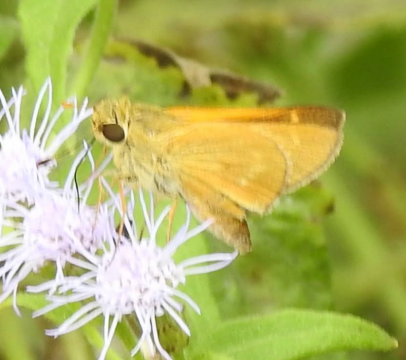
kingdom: Animalia
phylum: Arthropoda
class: Insecta
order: Lepidoptera
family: Hesperiidae
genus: Mellana
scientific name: Mellana eulogius
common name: Common Mellana
